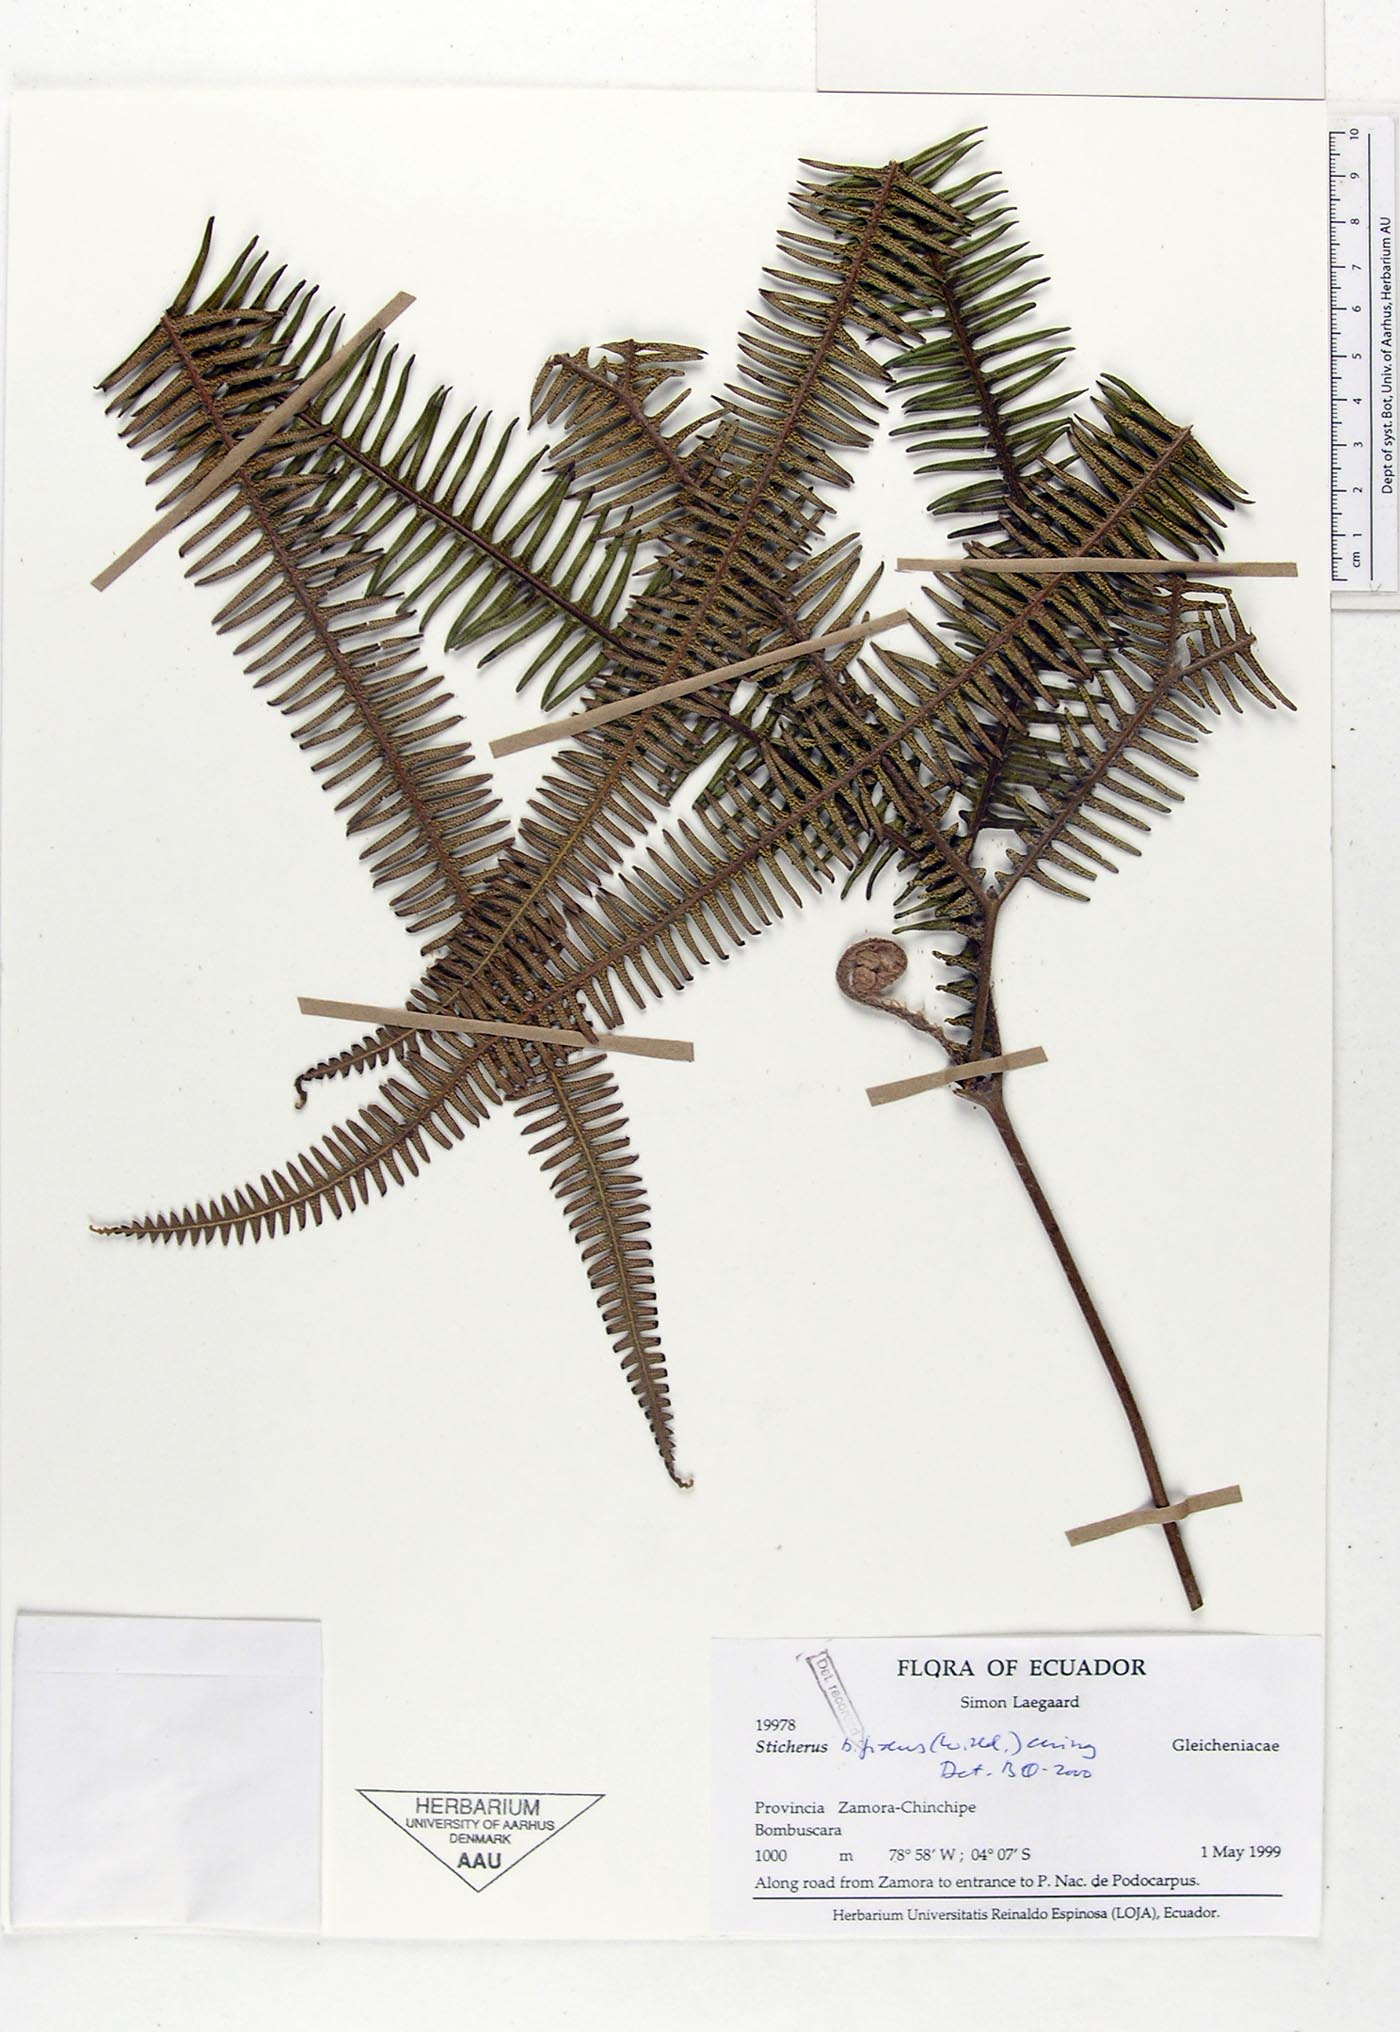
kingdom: Plantae
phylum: Tracheophyta
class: Polypodiopsida
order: Gleicheniales
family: Gleicheniaceae
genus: Sticherus
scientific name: Sticherus bifidus
